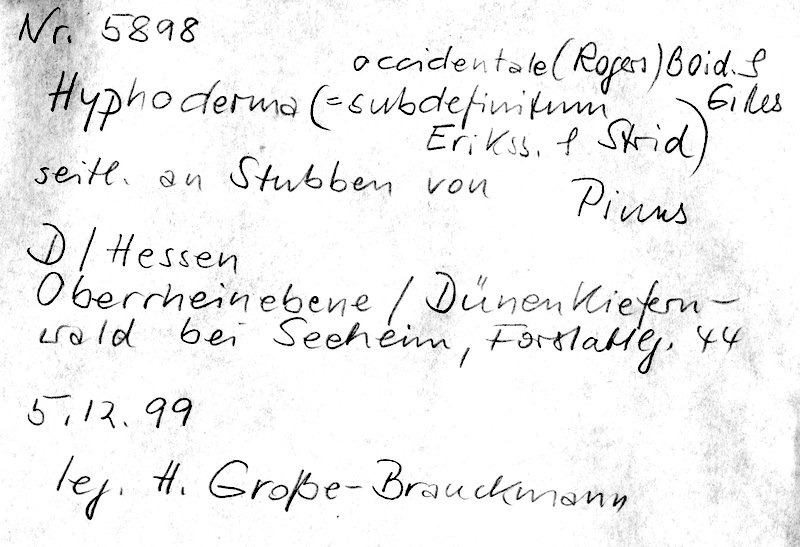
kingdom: Plantae
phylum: Tracheophyta
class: Pinopsida
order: Pinales
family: Pinaceae
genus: Pinus
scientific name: Pinus
